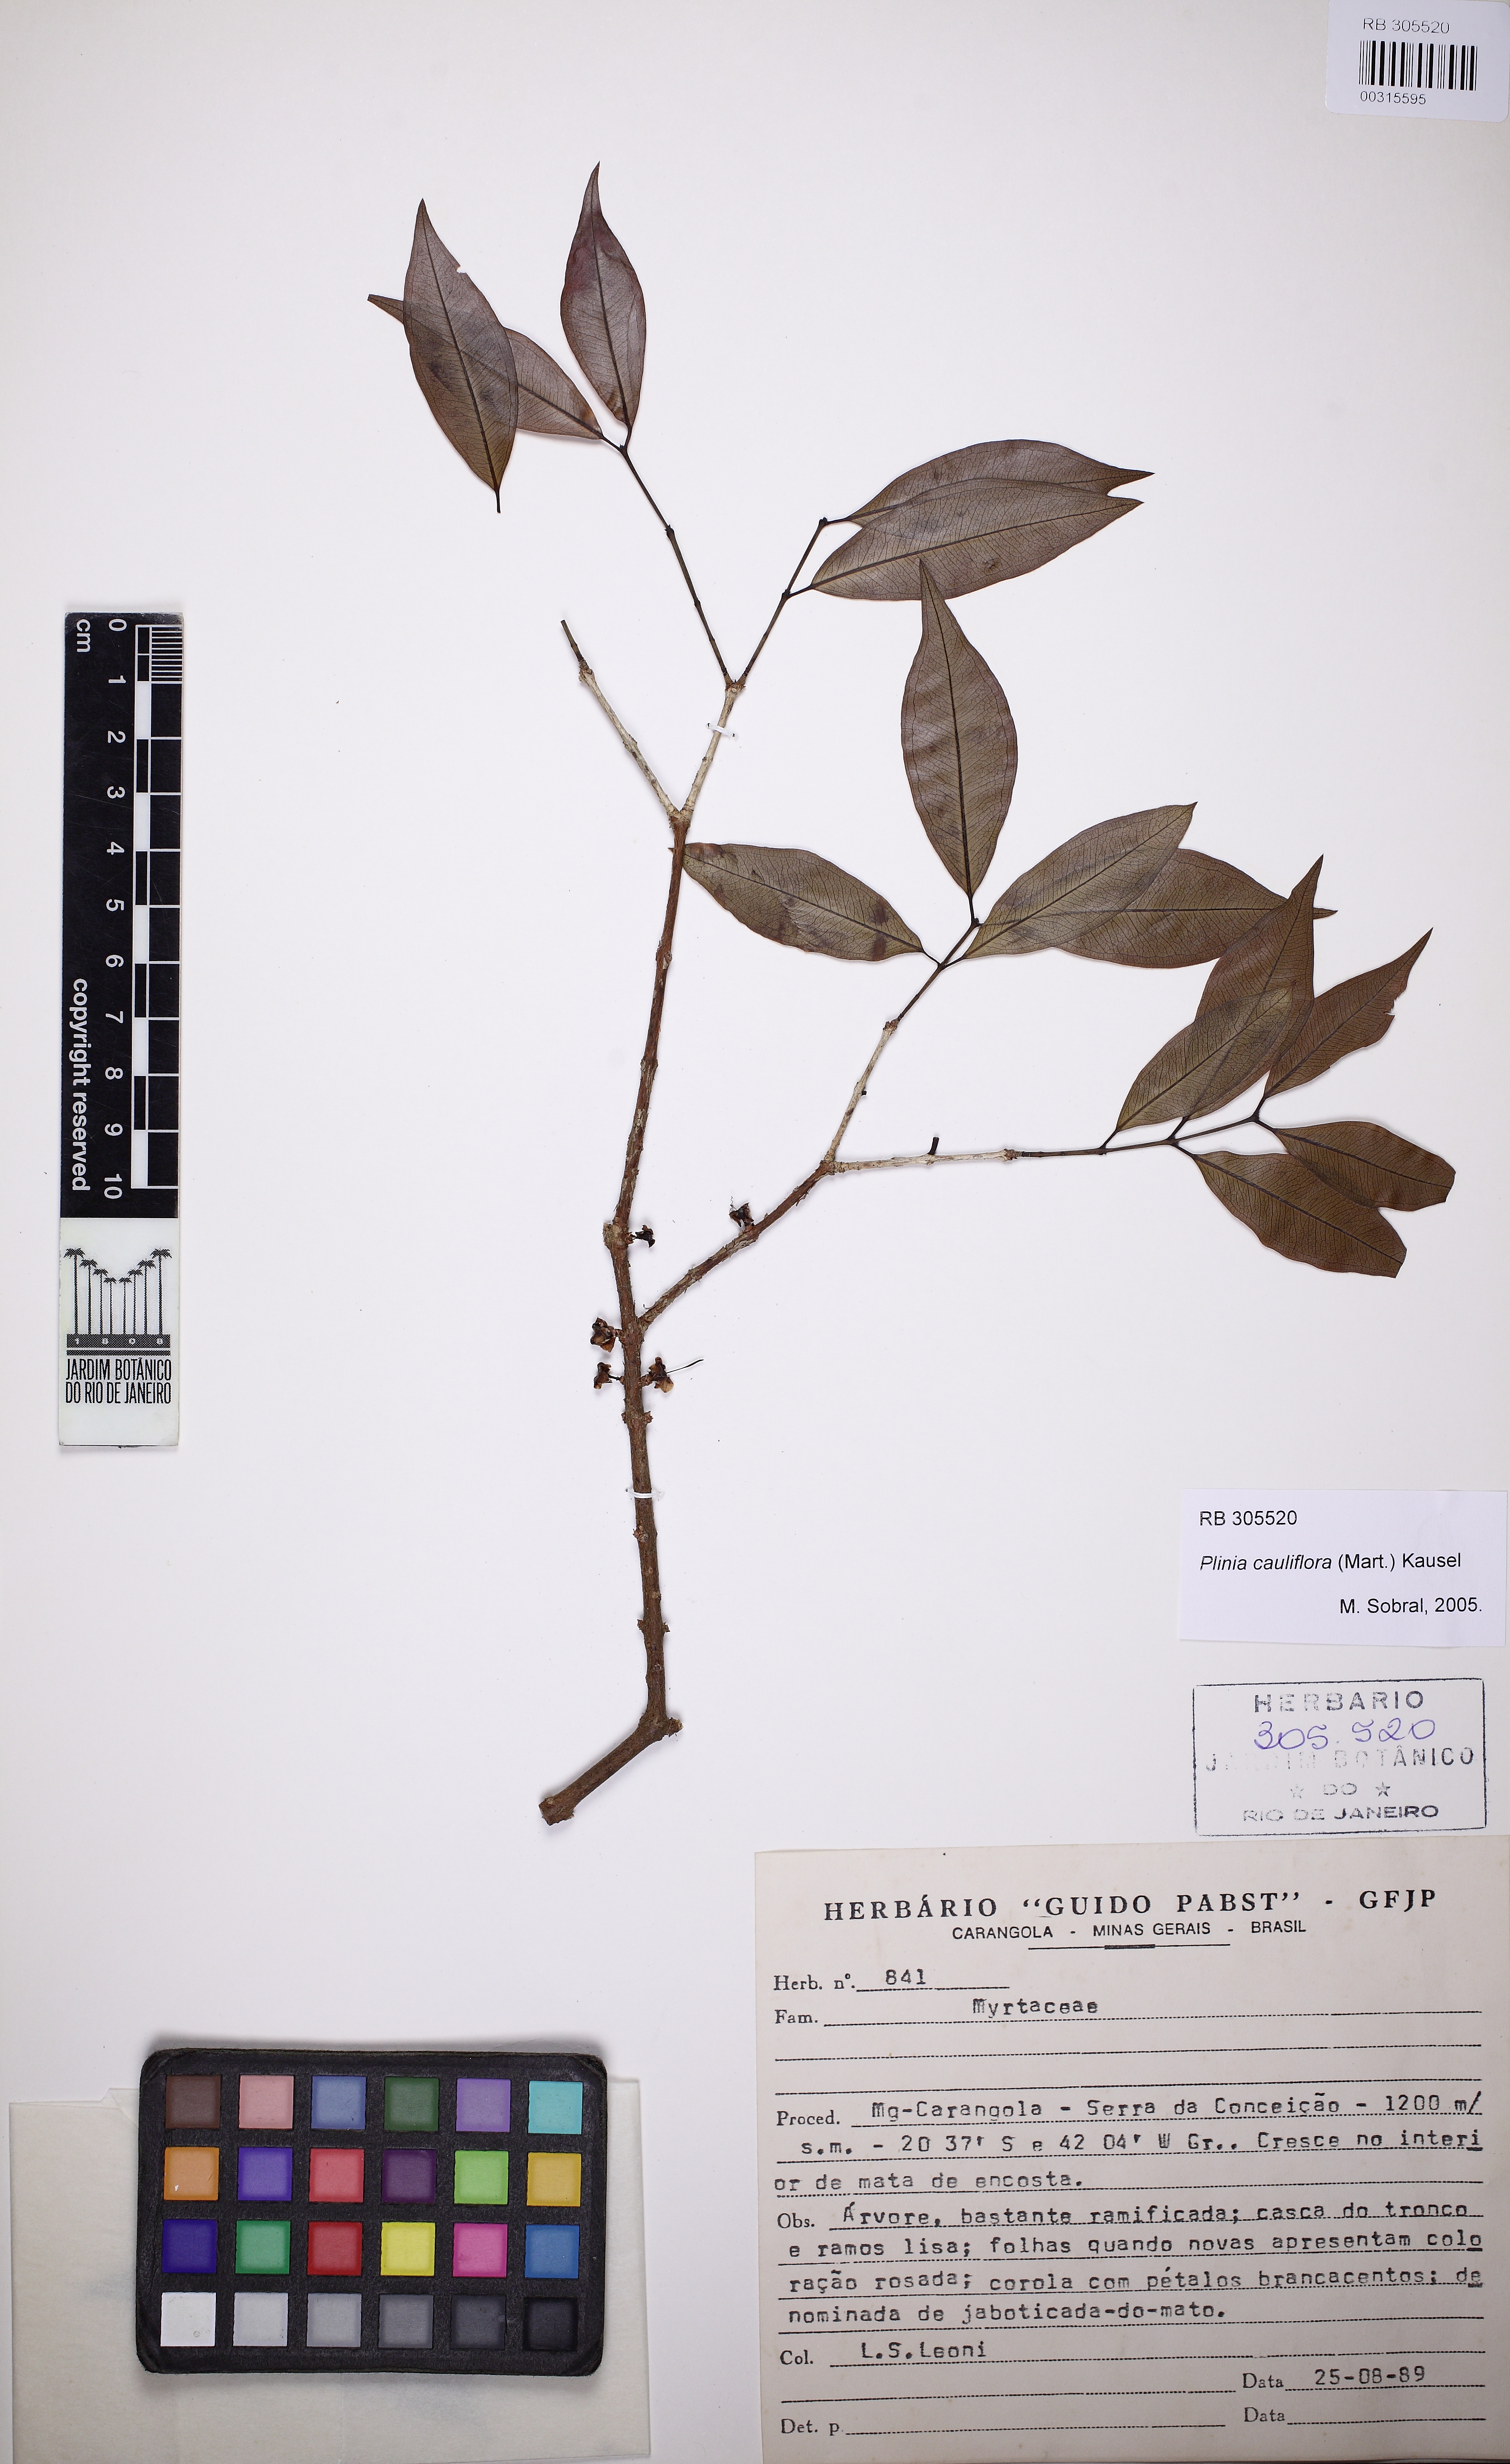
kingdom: Plantae
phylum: Tracheophyta
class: Magnoliopsida
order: Myrtales
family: Myrtaceae
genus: Plinia
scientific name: Plinia cauliflora
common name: Brazilian grapetree
